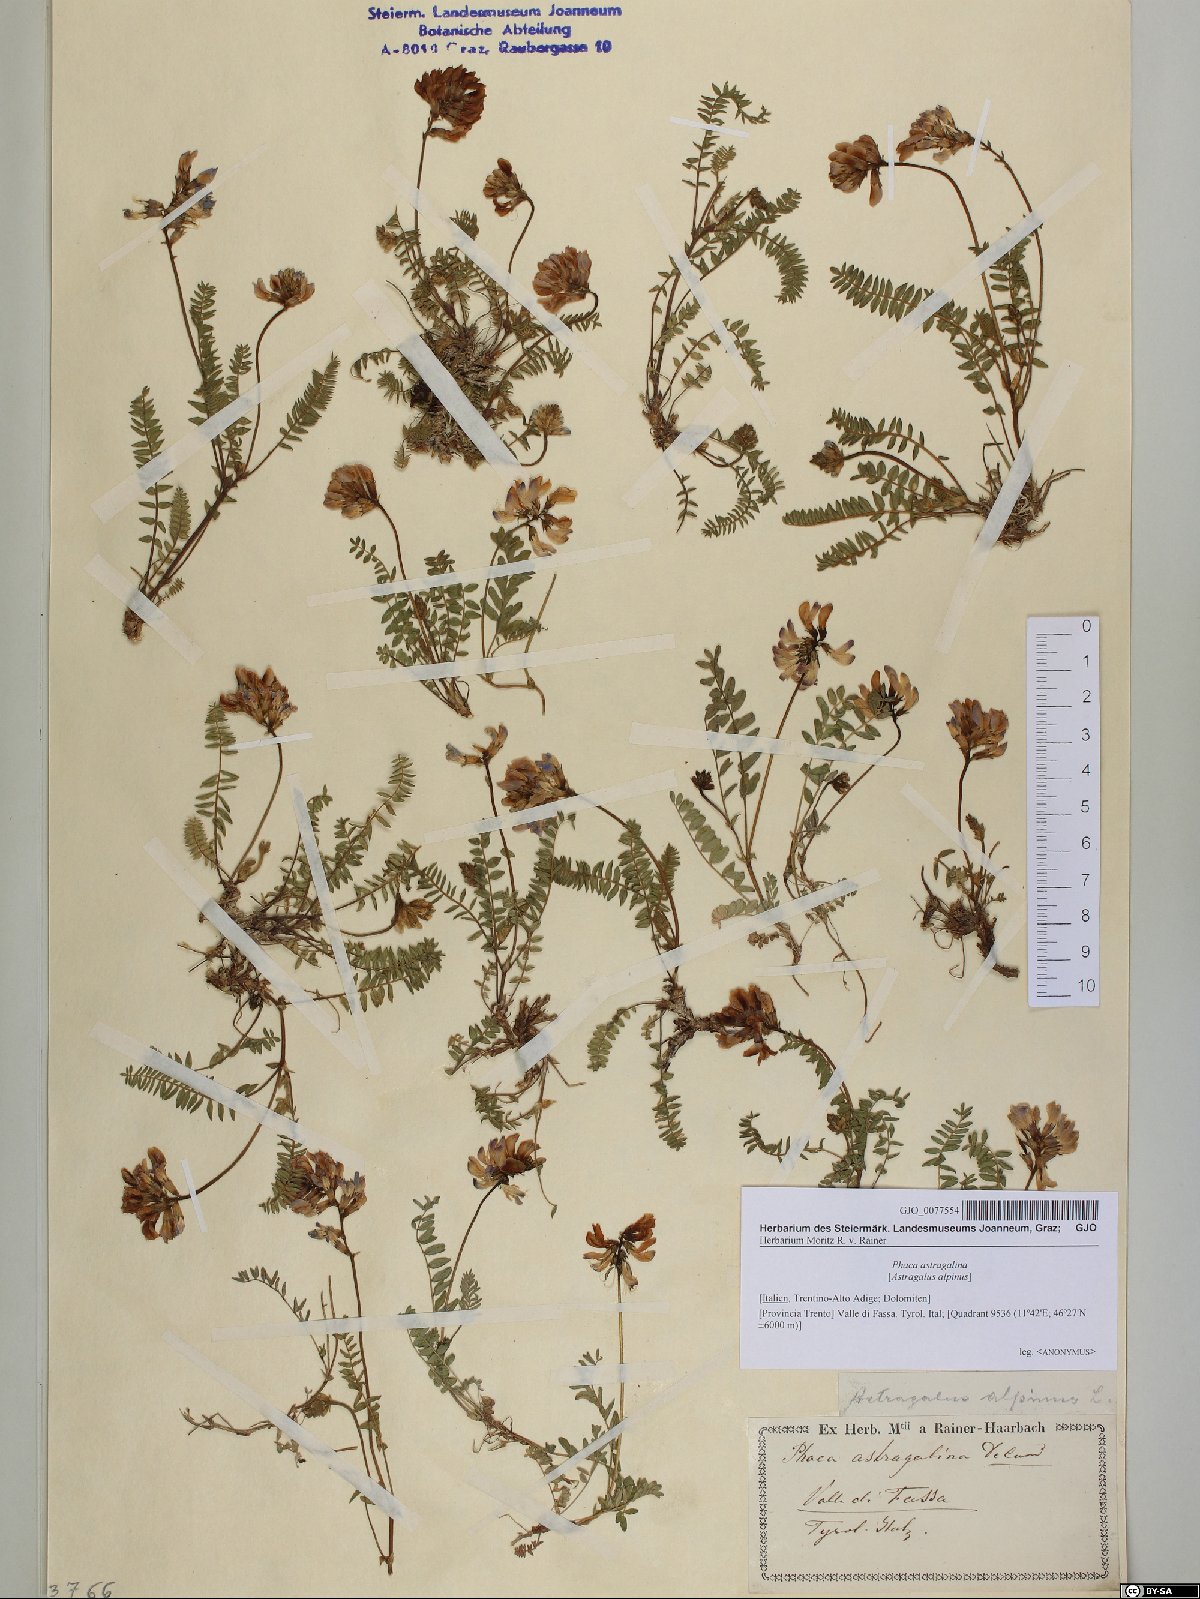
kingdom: Plantae
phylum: Tracheophyta
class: Magnoliopsida
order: Fabales
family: Fabaceae
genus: Astragalus
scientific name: Astragalus alpinus
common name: Alpine milk-vetch
